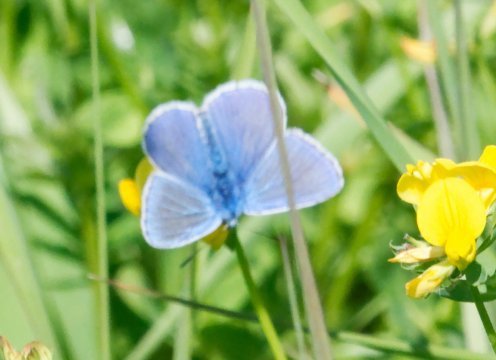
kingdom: Animalia
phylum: Arthropoda
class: Insecta
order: Lepidoptera
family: Lycaenidae
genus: Polyommatus
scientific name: Polyommatus icarus
